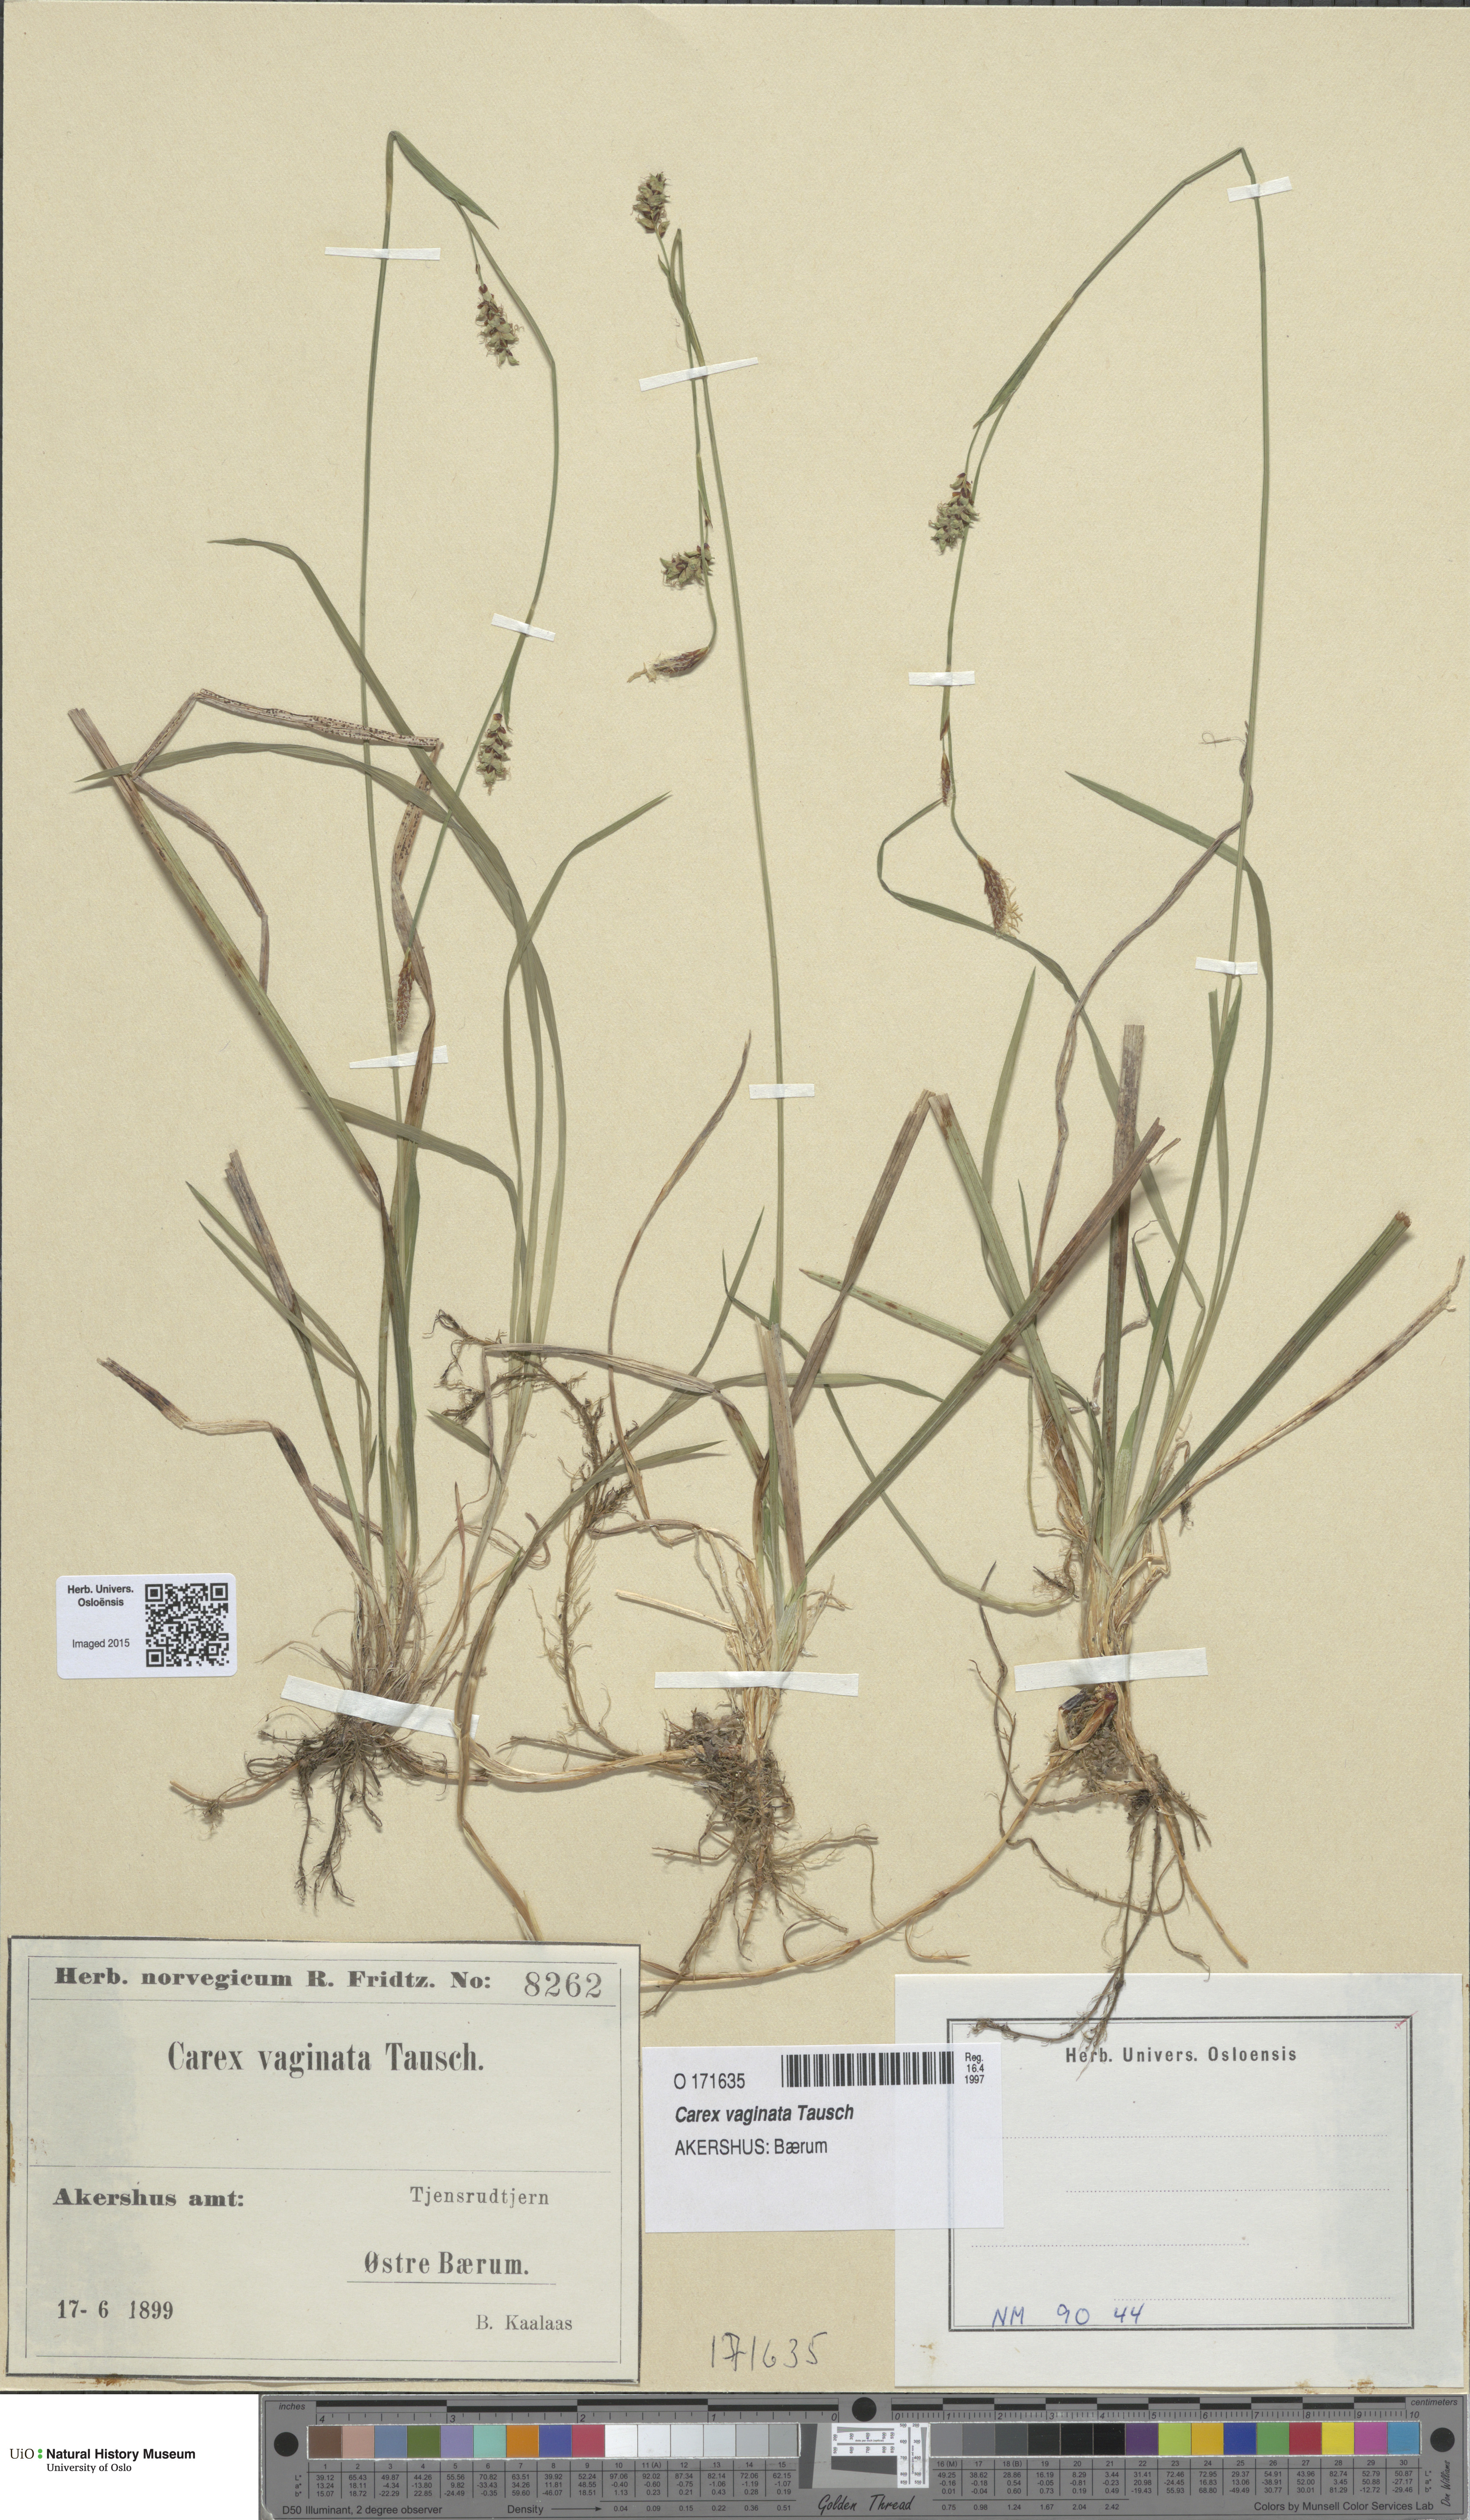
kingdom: Plantae
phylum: Tracheophyta
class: Liliopsida
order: Poales
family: Cyperaceae
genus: Carex
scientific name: Carex vaginata
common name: Sheathed sedge
